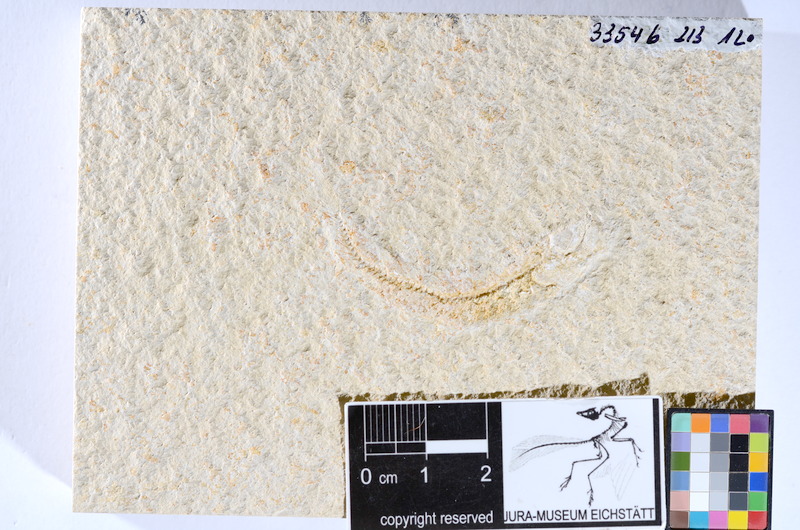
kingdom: Animalia
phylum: Chordata
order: Salmoniformes
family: Orthogonikleithridae
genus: Leptolepides
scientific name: Leptolepides sprattiformis
